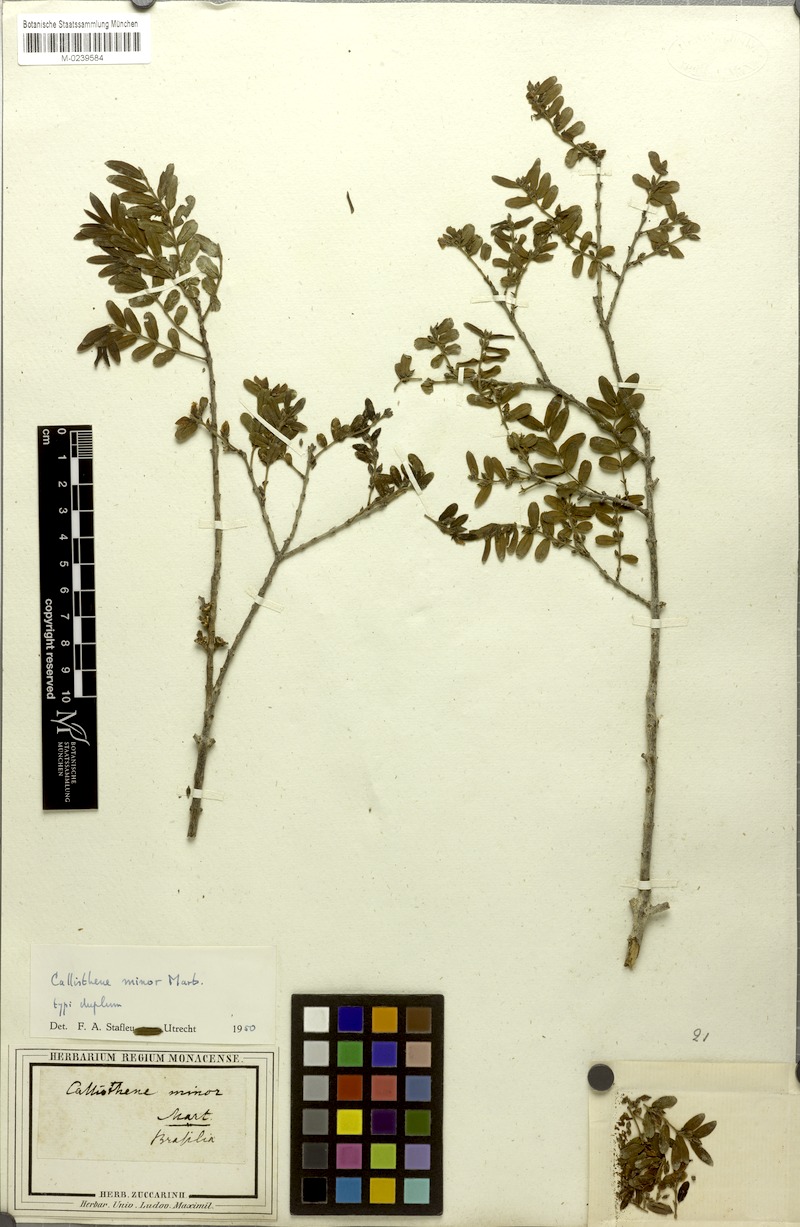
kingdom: Plantae
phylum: Tracheophyta
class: Magnoliopsida
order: Myrtales
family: Vochysiaceae
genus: Callisthene
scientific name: Callisthene minor
